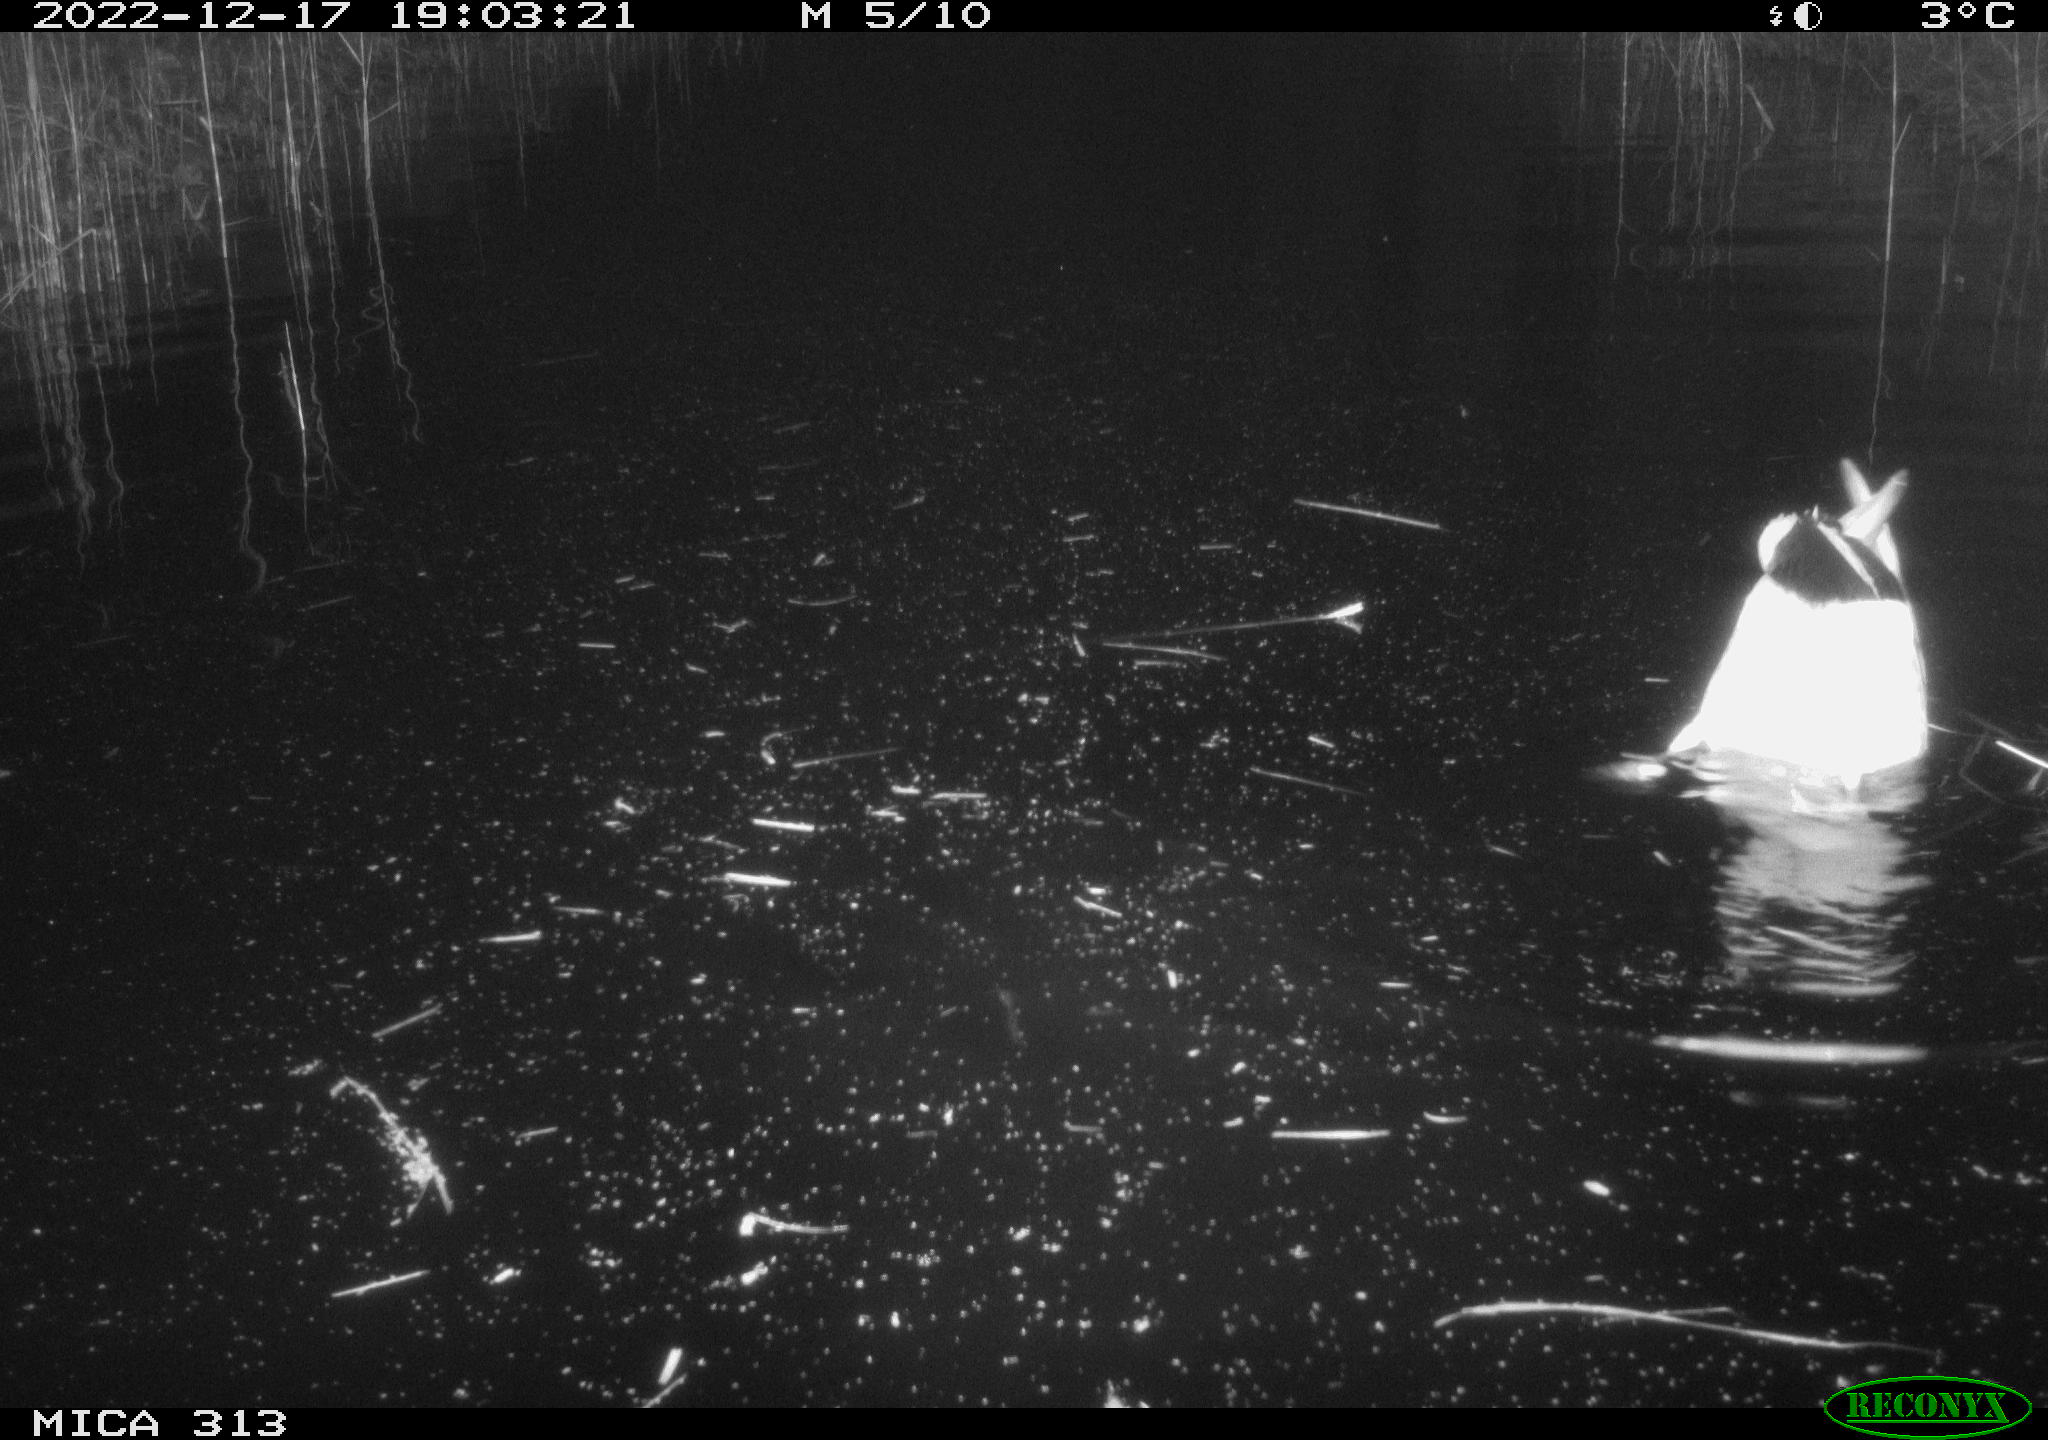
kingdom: Animalia
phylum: Chordata
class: Mammalia
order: Rodentia
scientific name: Rodentia
